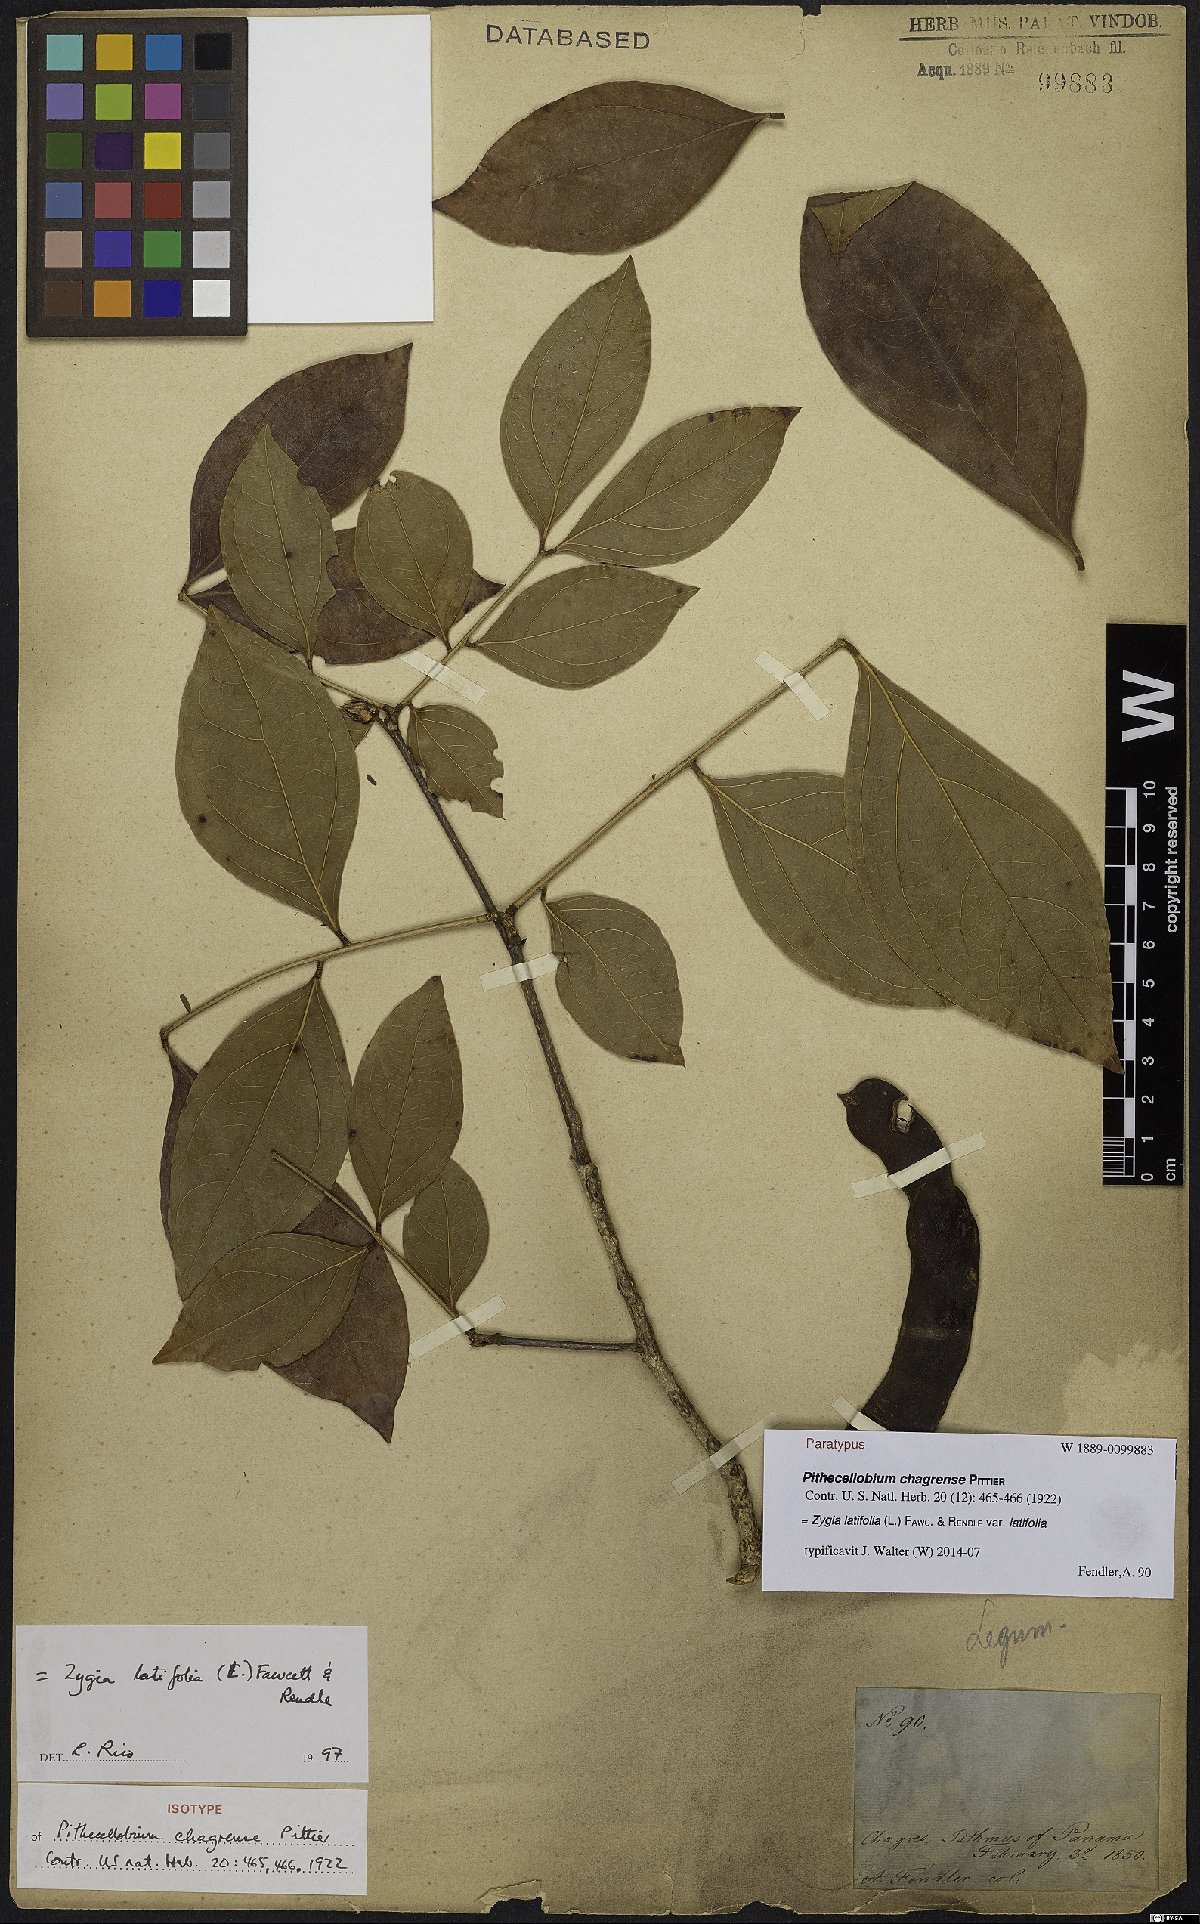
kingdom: Plantae
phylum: Tracheophyta
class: Magnoliopsida
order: Fabales
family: Fabaceae
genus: Zygia
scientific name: Zygia latifolia
